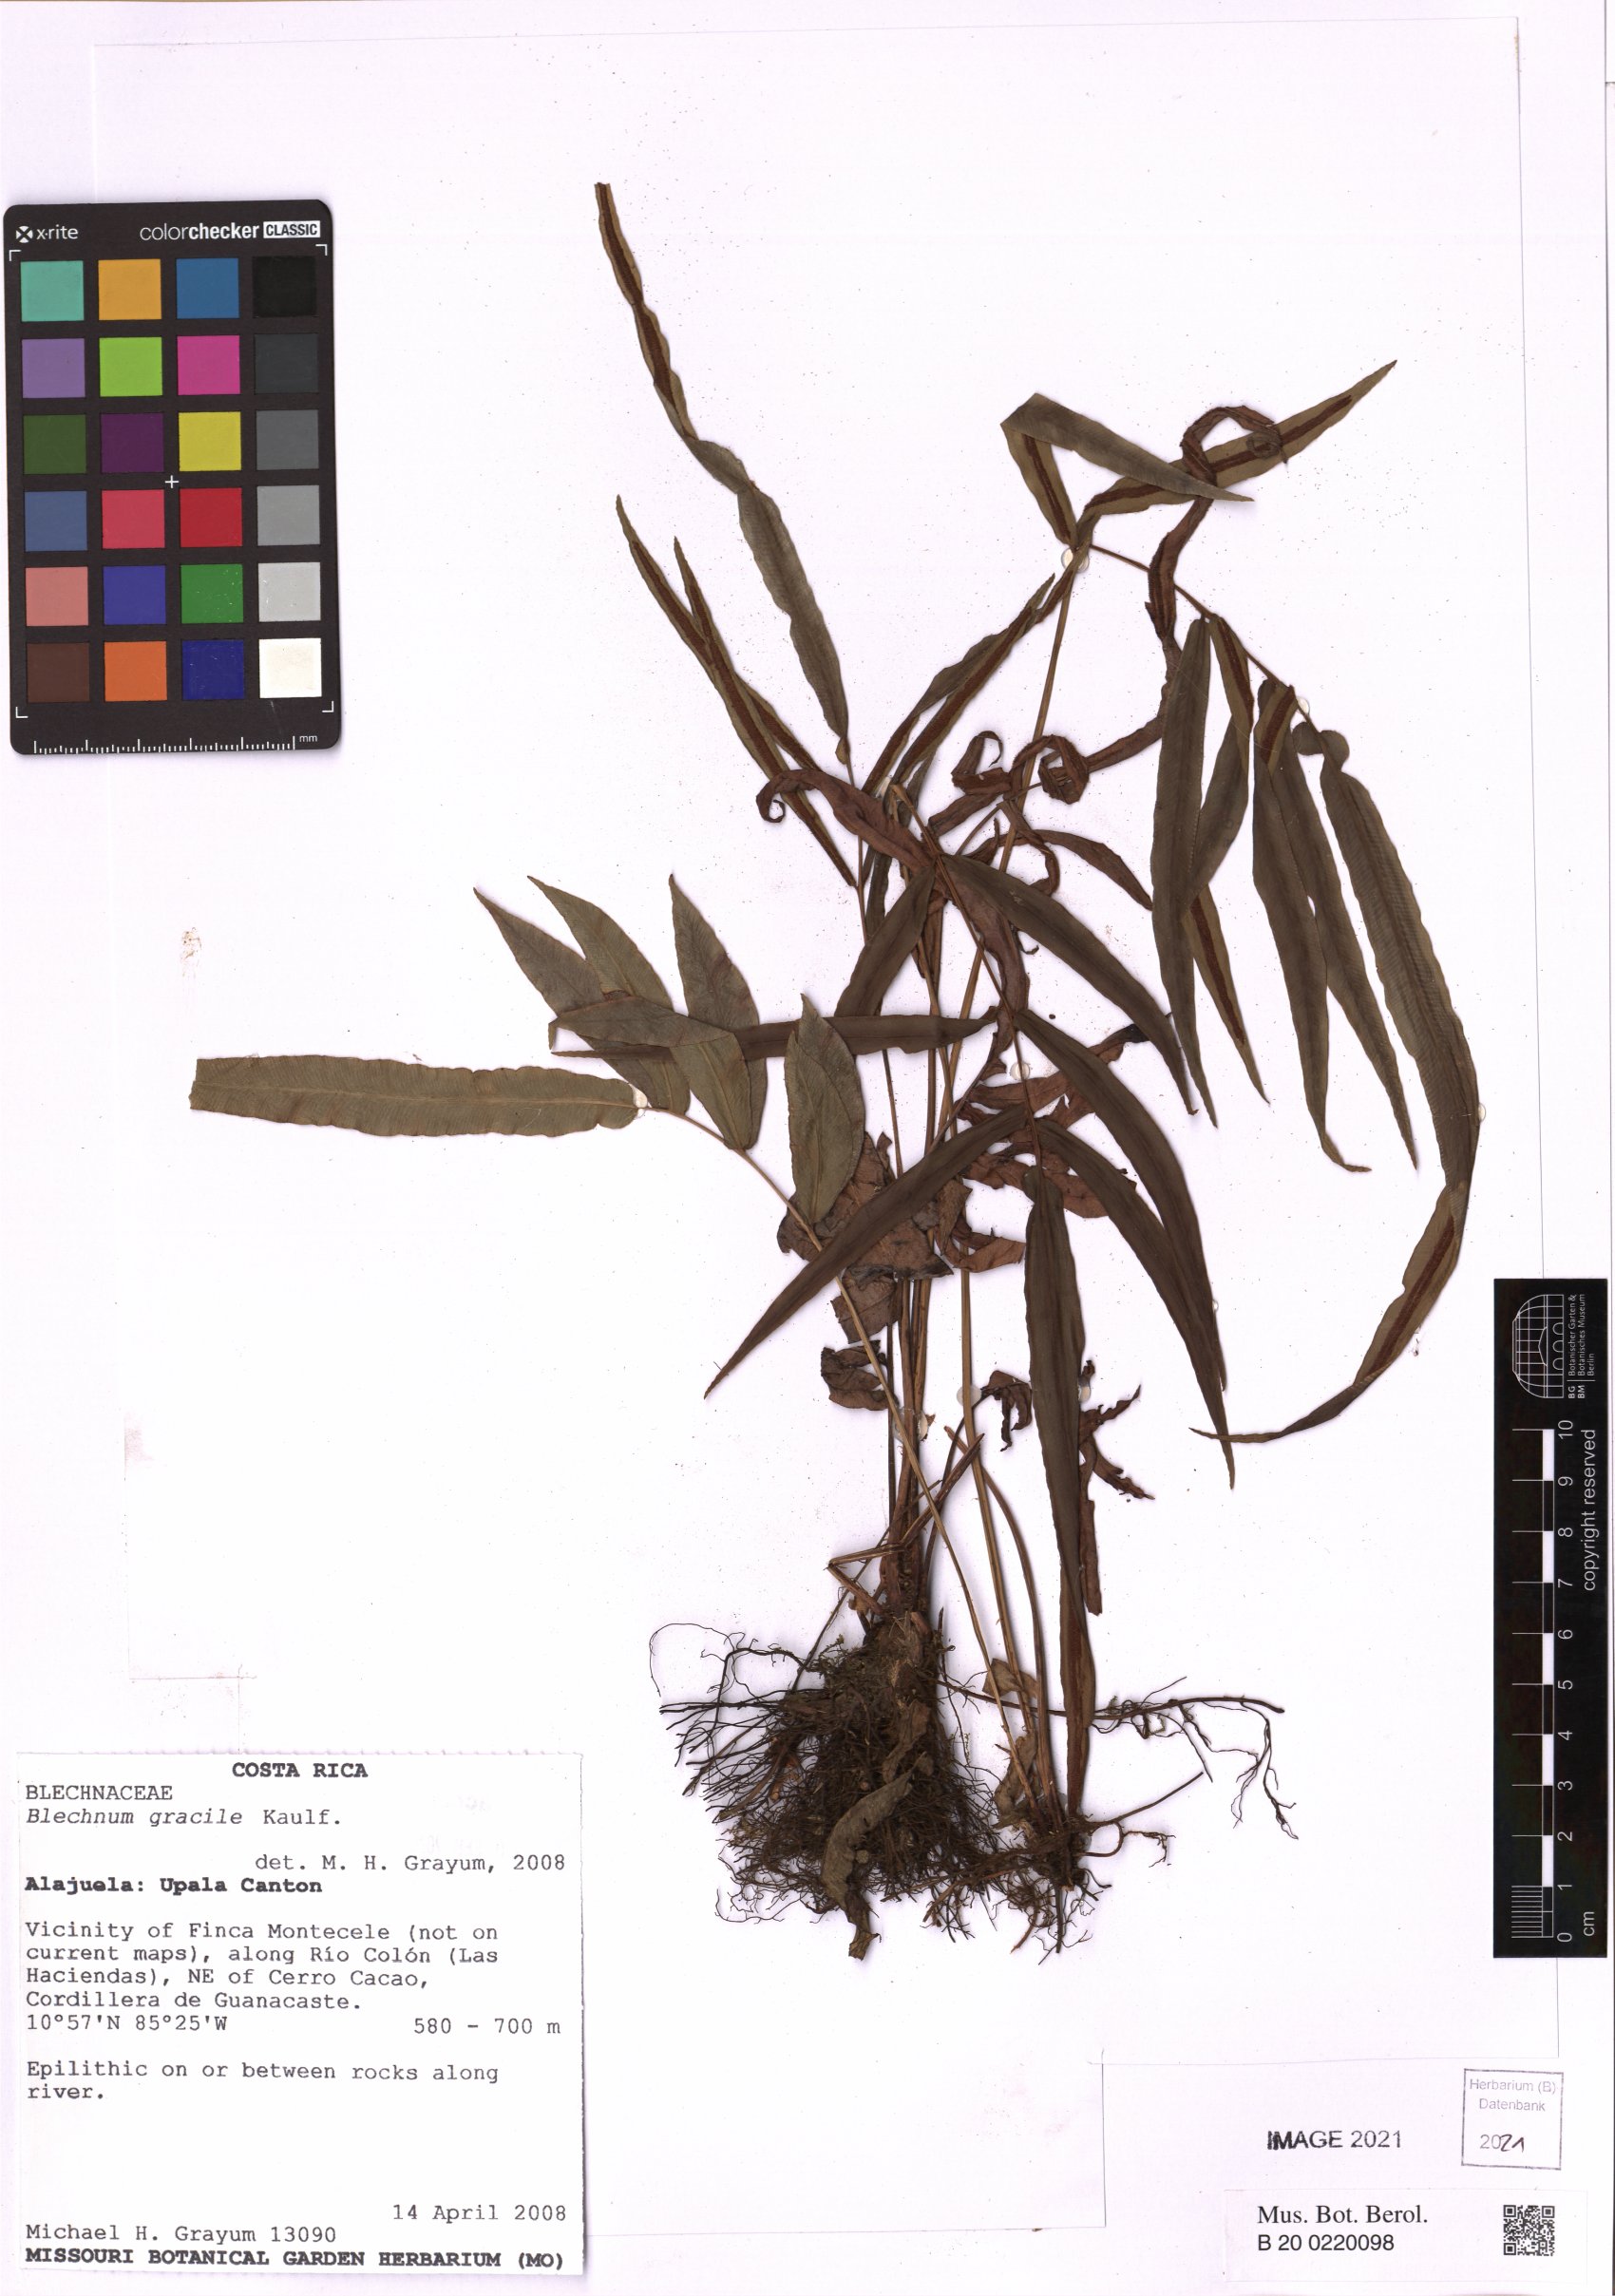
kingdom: Plantae
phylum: Tracheophyta
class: Polypodiopsida
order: Polypodiales
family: Blechnaceae
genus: Blechnum
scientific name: Blechnum gracile
